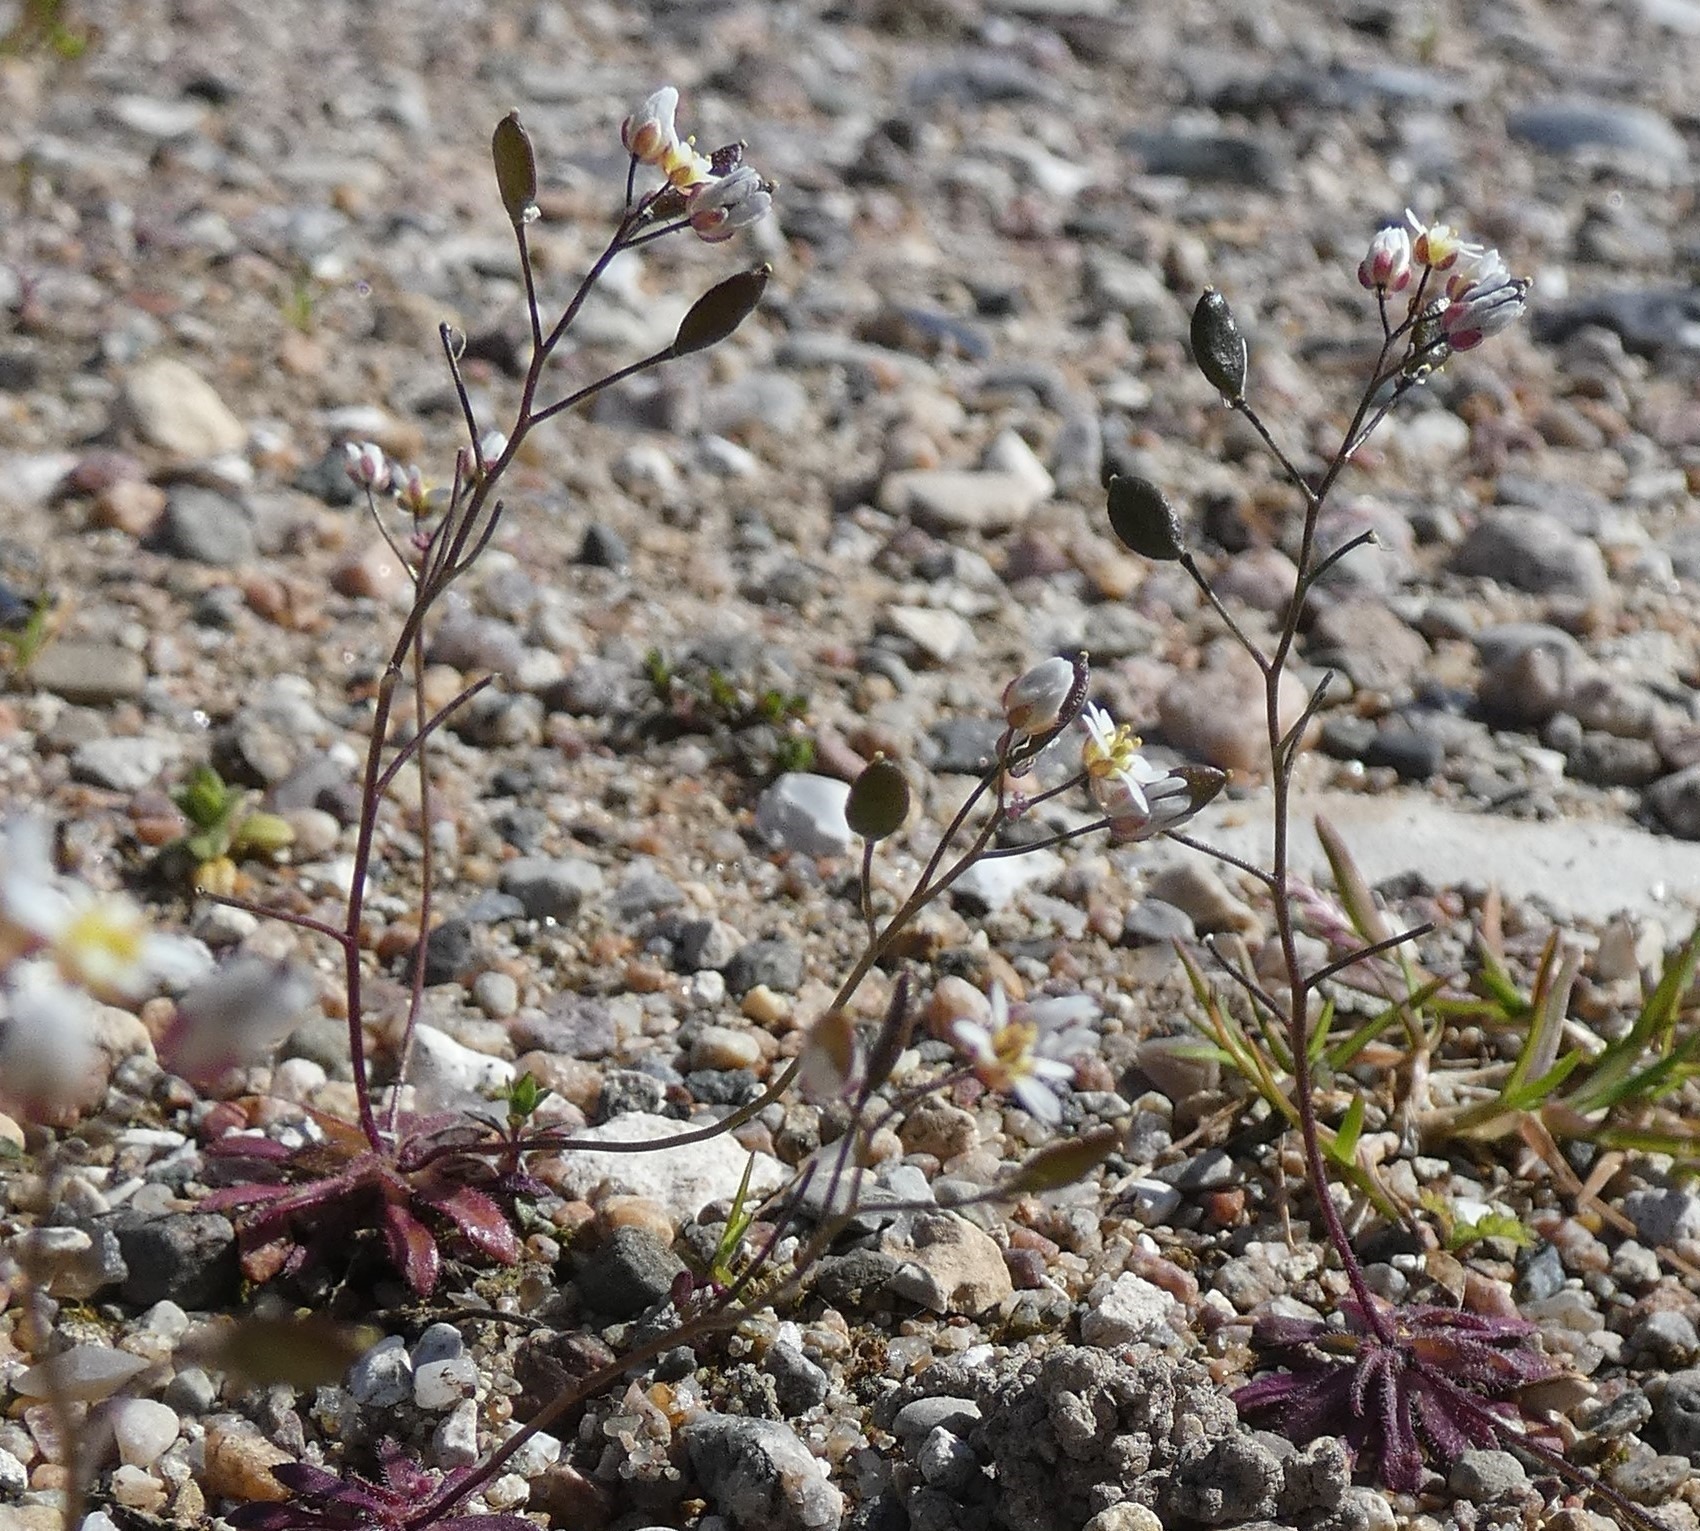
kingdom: Plantae
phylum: Tracheophyta
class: Magnoliopsida
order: Brassicales
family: Brassicaceae
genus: Draba
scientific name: Draba verna
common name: Vår-gæslingeblomst
